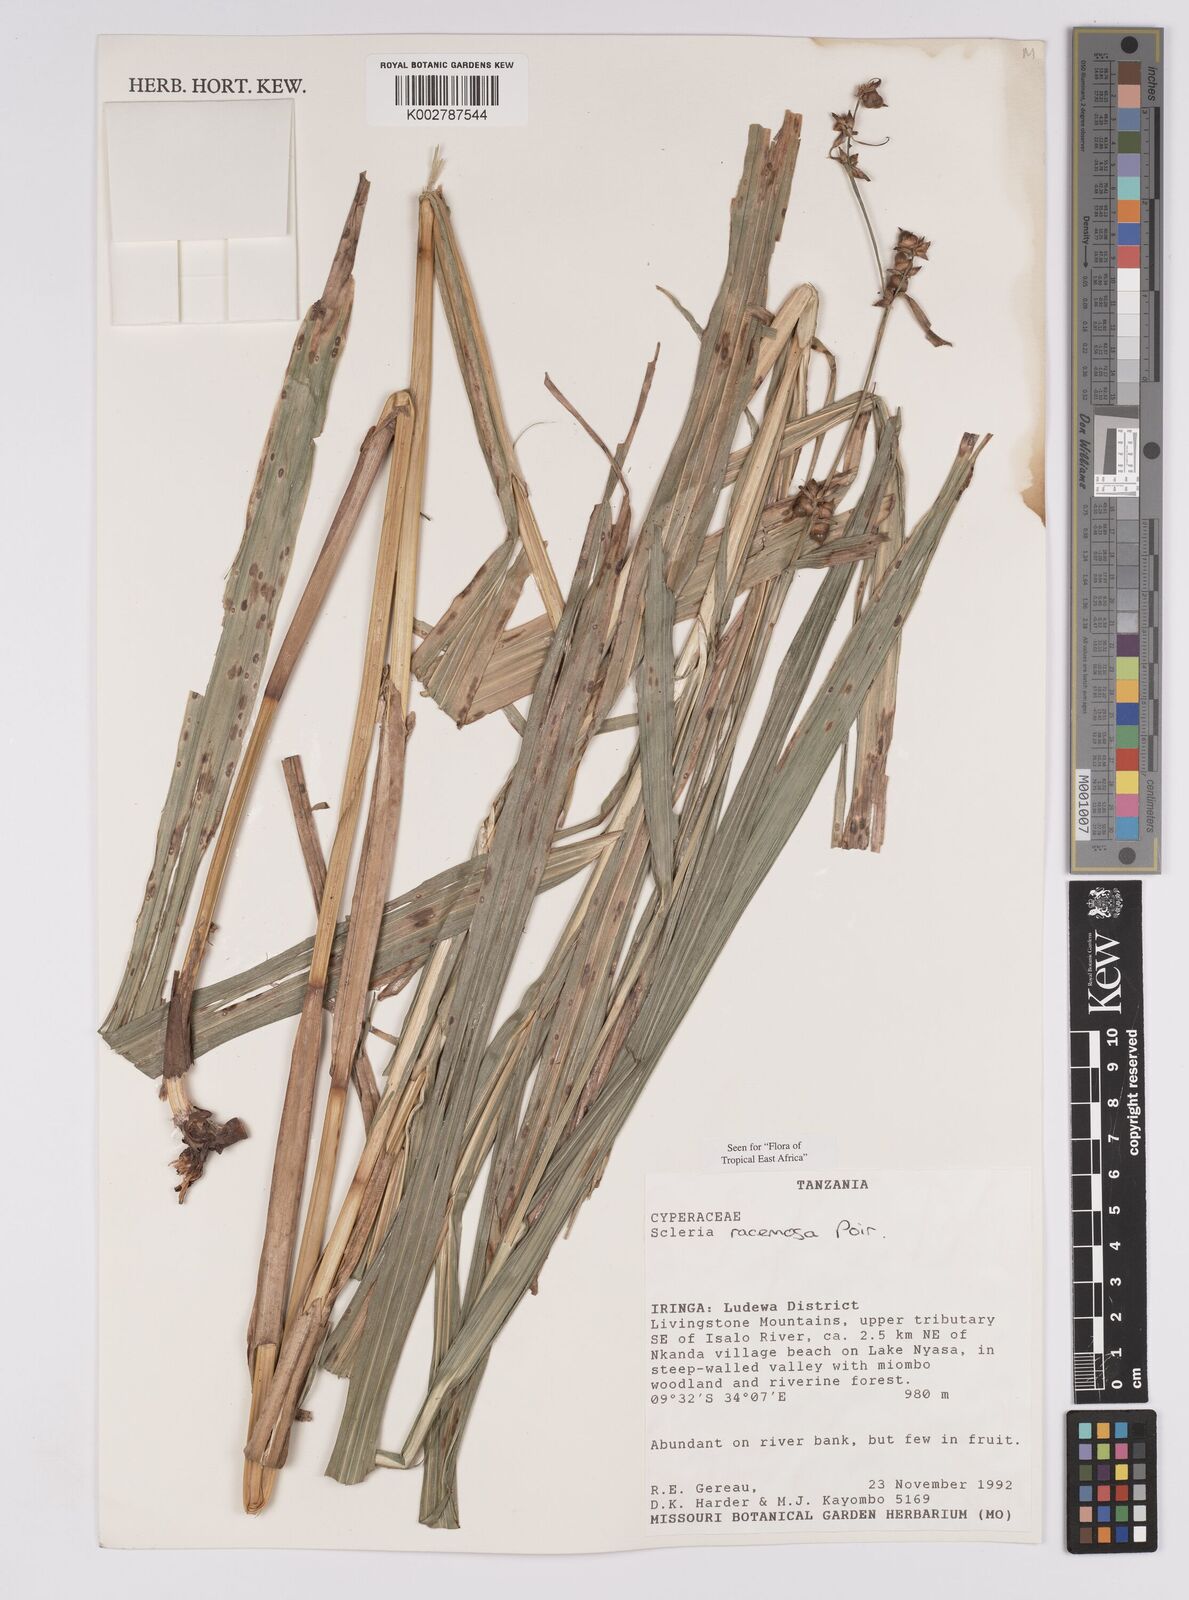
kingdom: Plantae
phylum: Tracheophyta
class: Liliopsida
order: Poales
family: Cyperaceae
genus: Scleria
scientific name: Scleria racemosa
